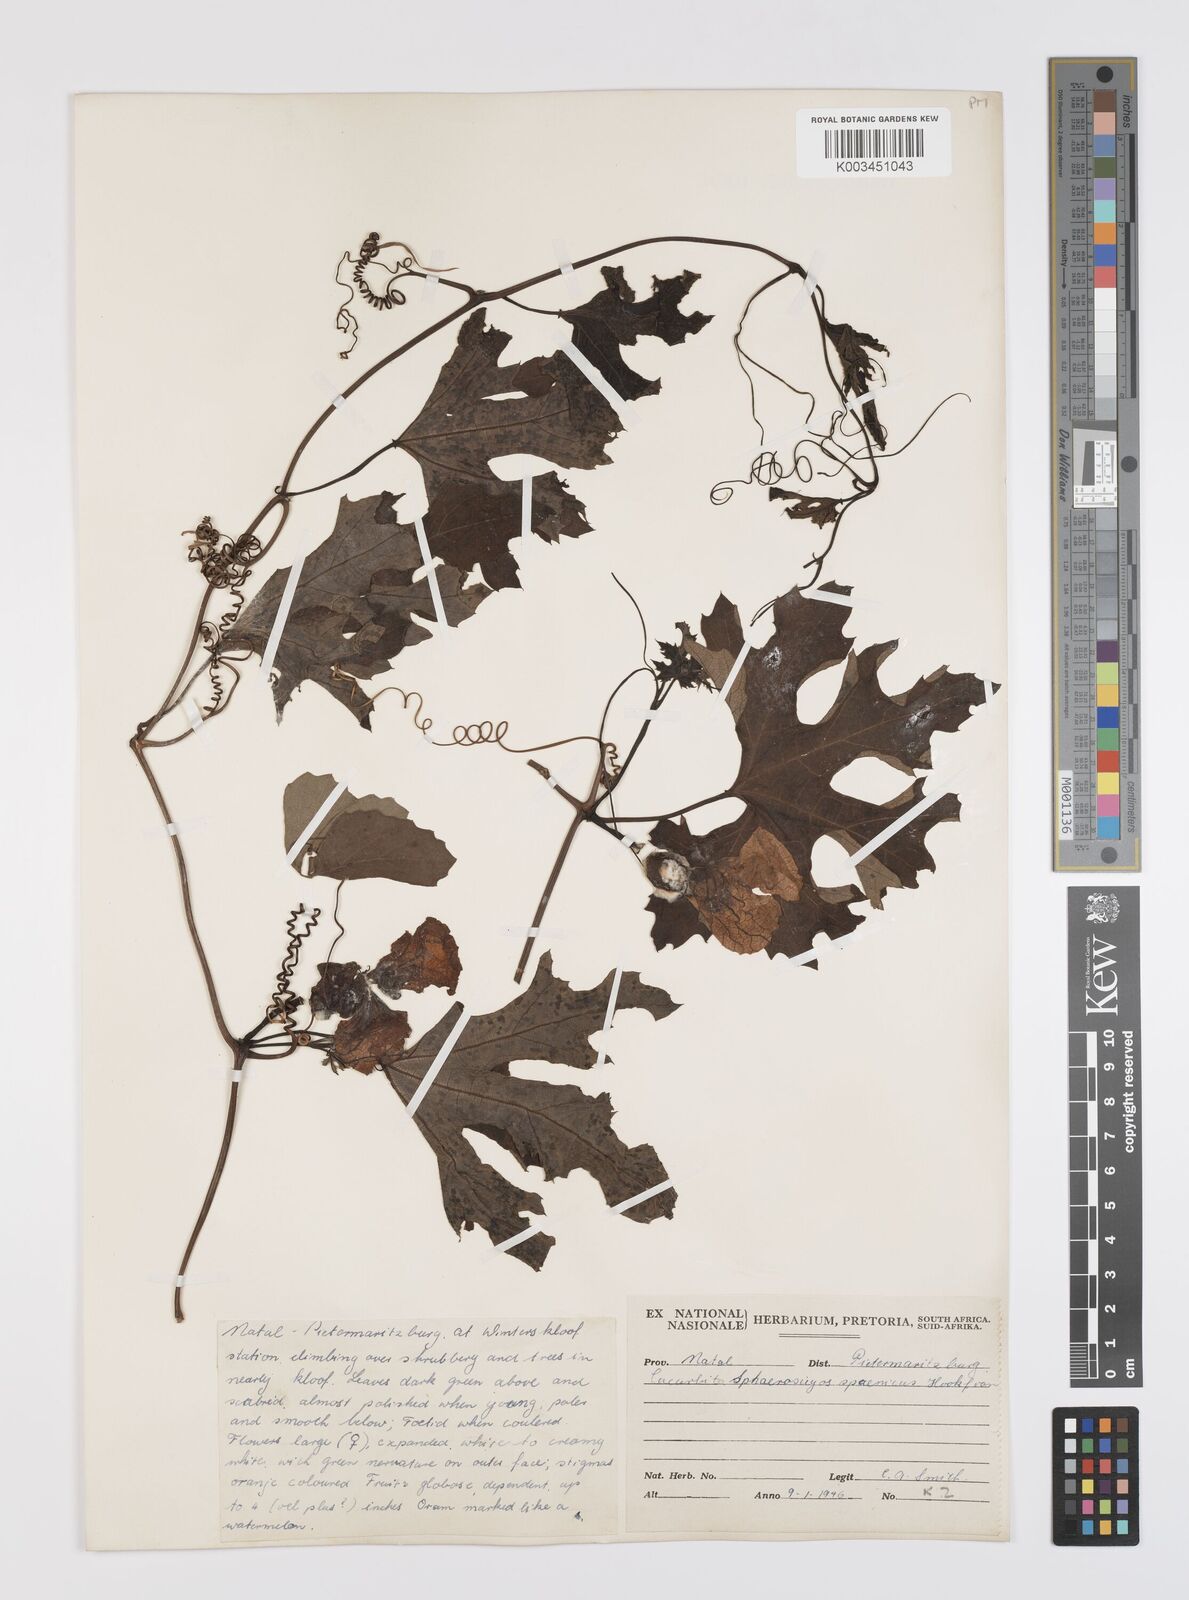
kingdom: Plantae
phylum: Tracheophyta
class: Magnoliopsida
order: Cucurbitales
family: Cucurbitaceae
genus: Lagenaria
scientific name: Lagenaria sphaerica
